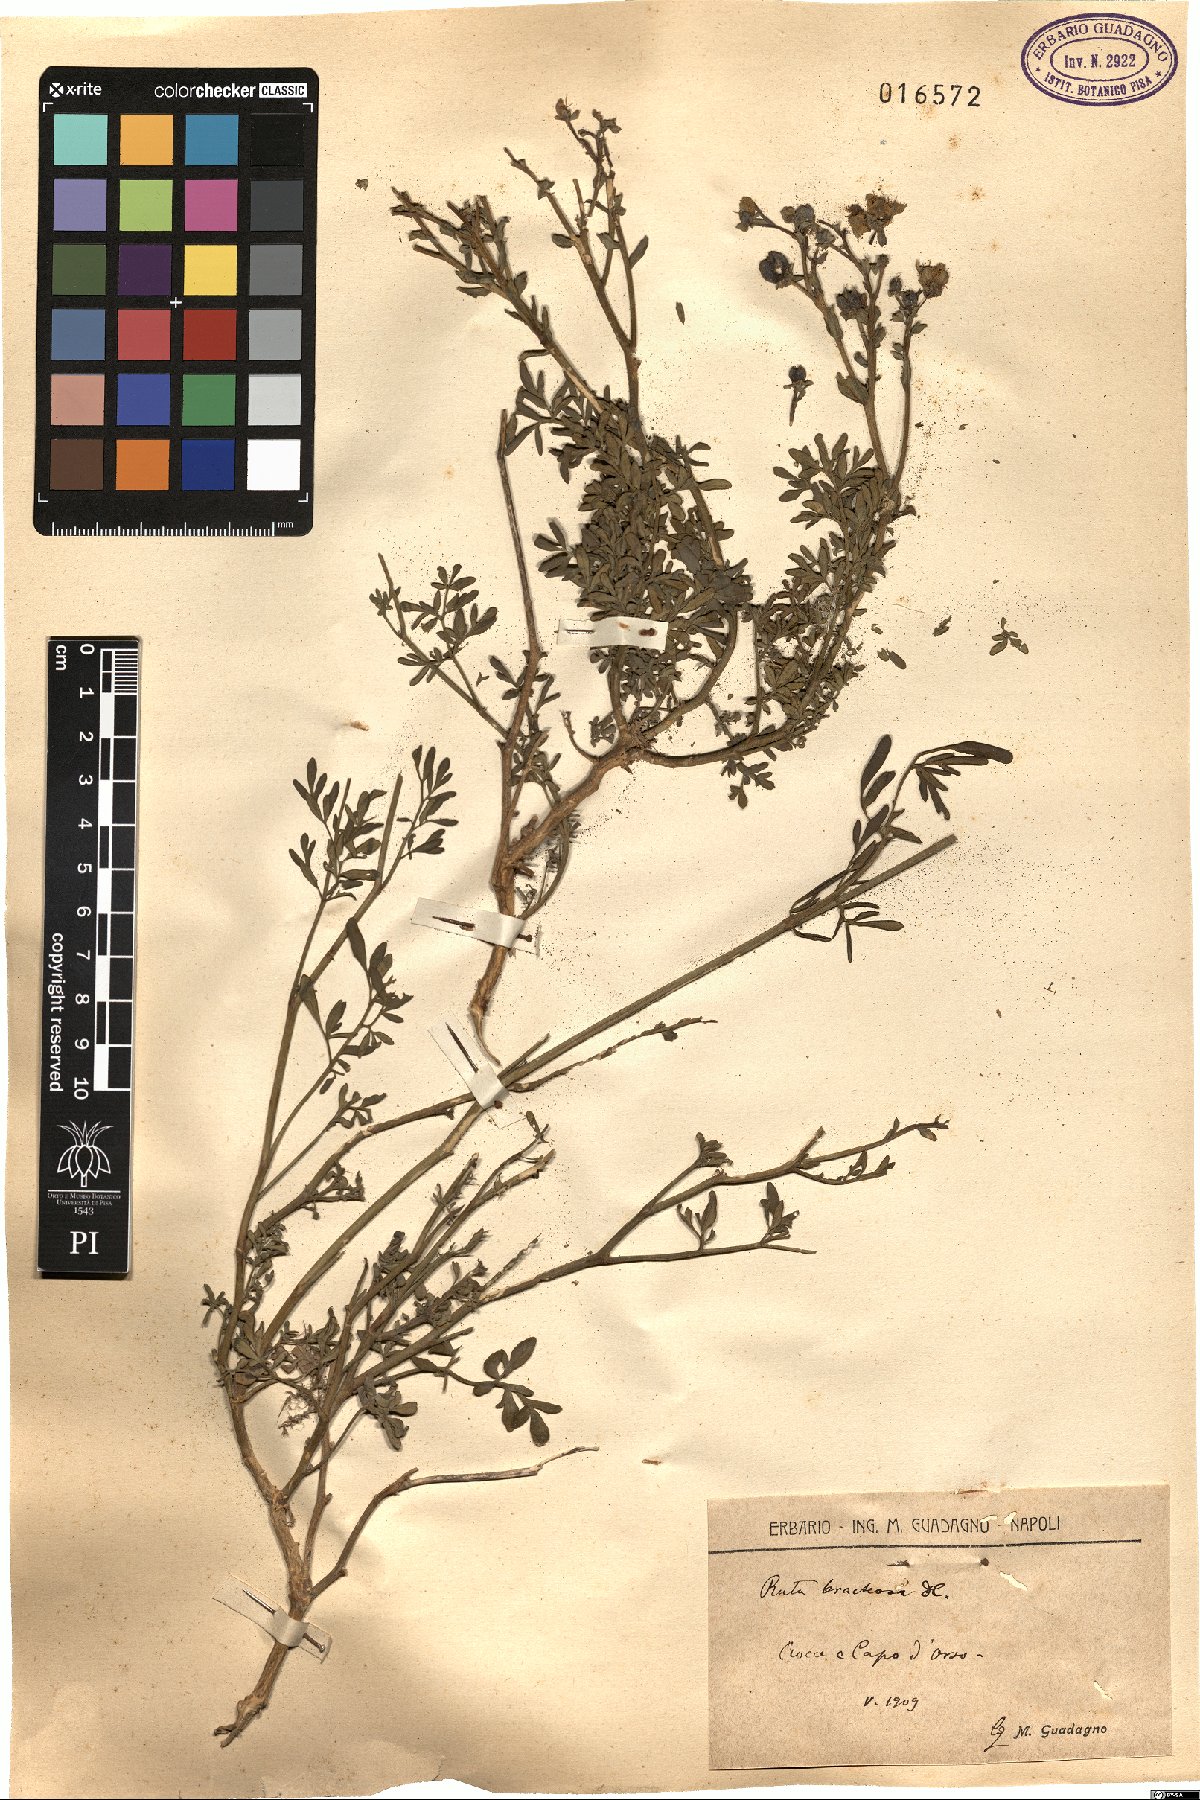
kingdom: Plantae
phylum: Tracheophyta
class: Magnoliopsida
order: Sapindales
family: Rutaceae
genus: Ruta
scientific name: Ruta chalepensis
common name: Fringed rue
